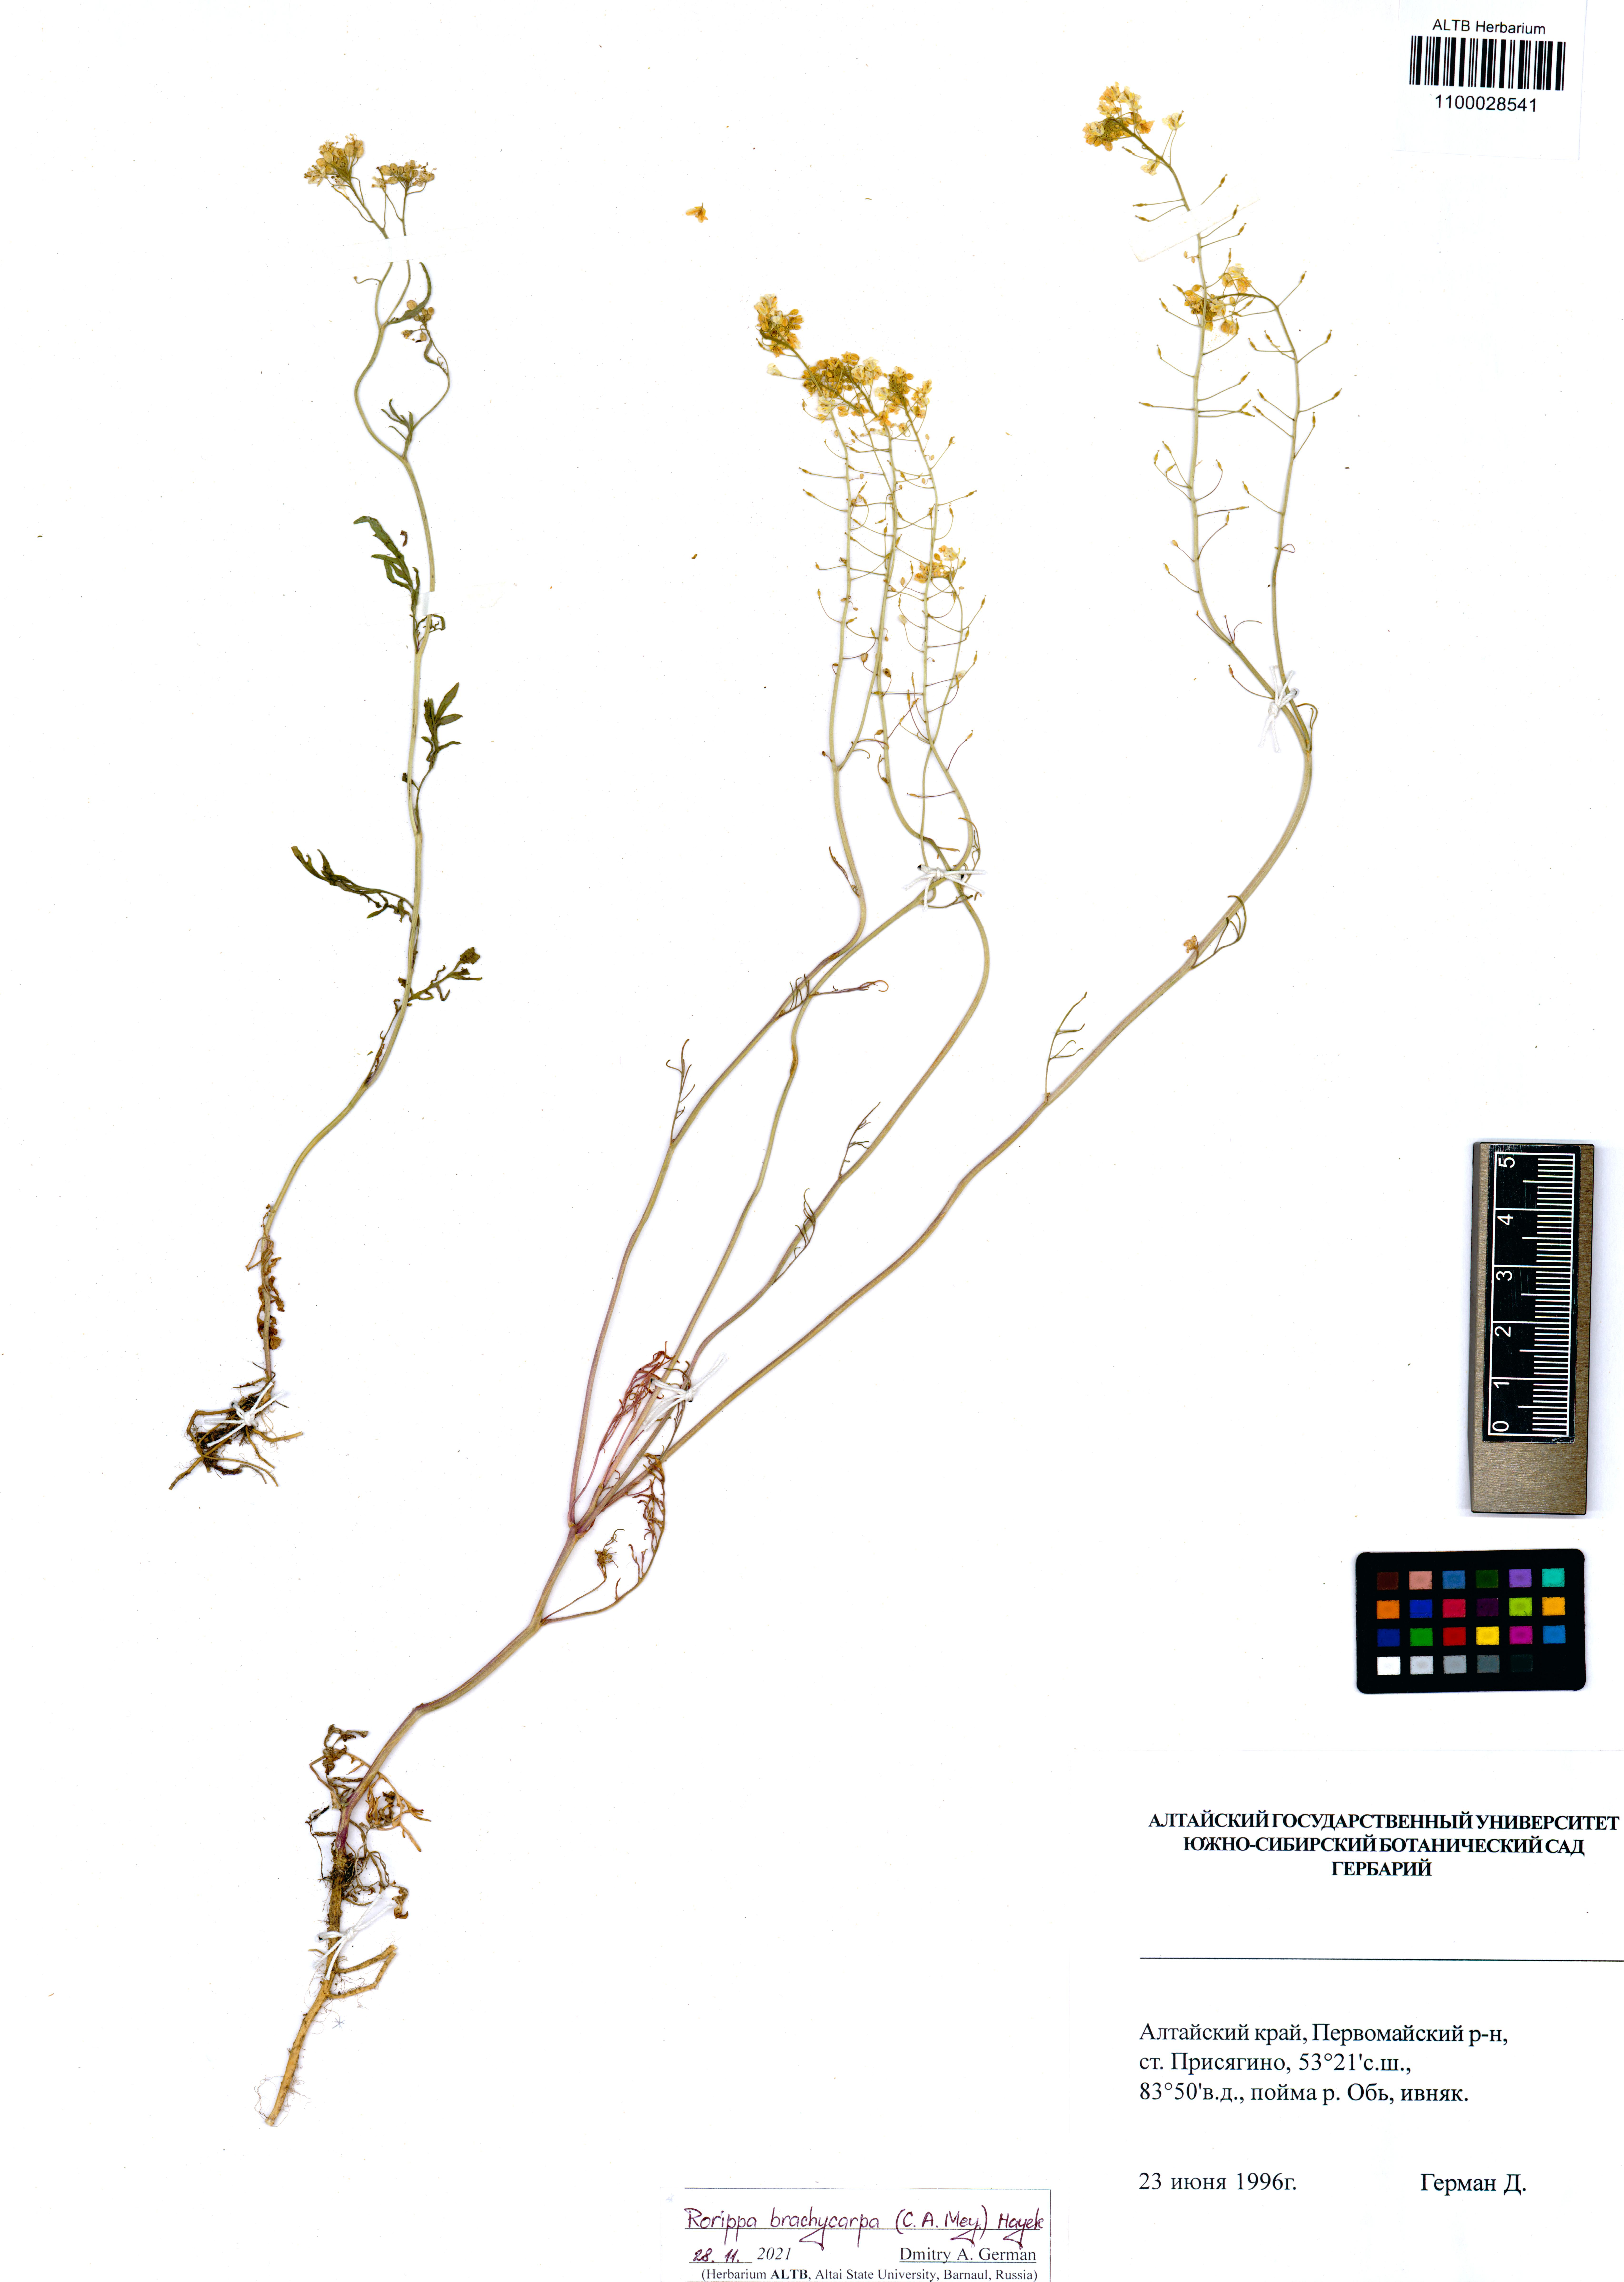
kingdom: Plantae
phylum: Tracheophyta
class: Magnoliopsida
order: Brassicales
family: Brassicaceae
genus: Rorippa
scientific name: Rorippa brachycarpa
